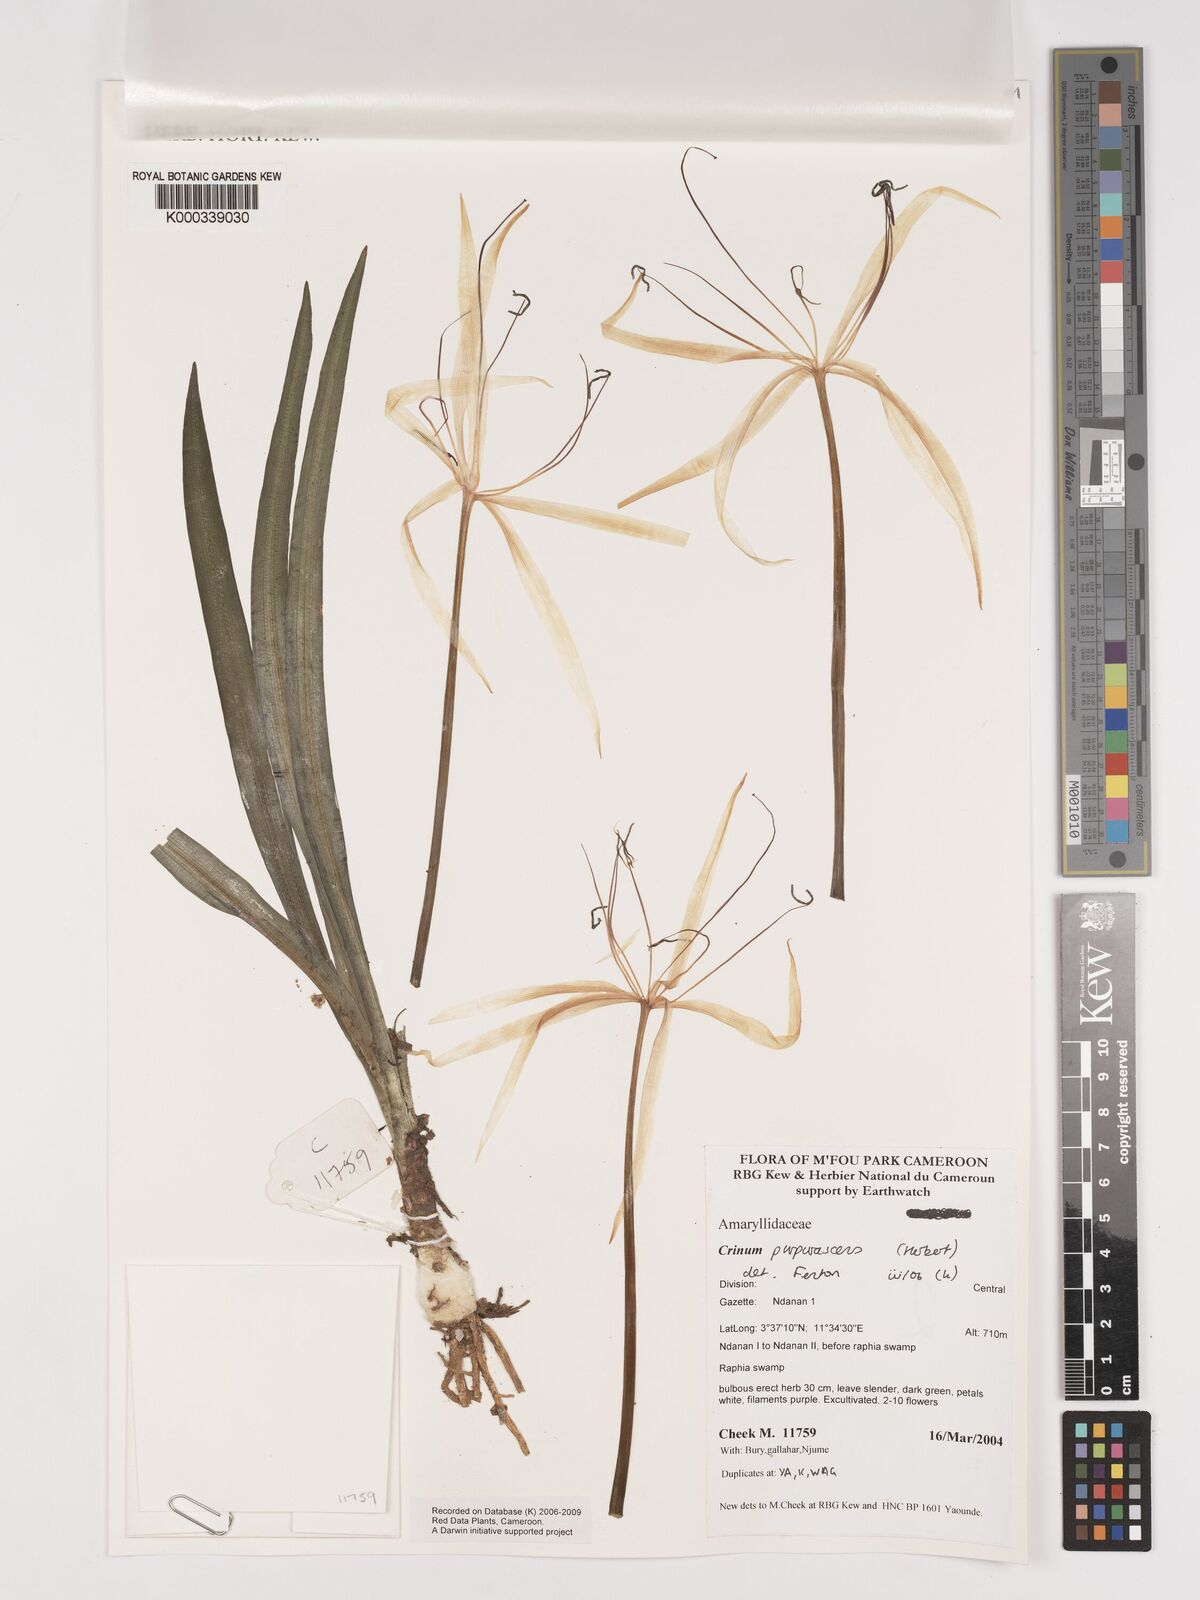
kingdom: Plantae
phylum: Tracheophyta
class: Liliopsida
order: Asparagales
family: Amaryllidaceae
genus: Crinum
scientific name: Crinum purpurascens
